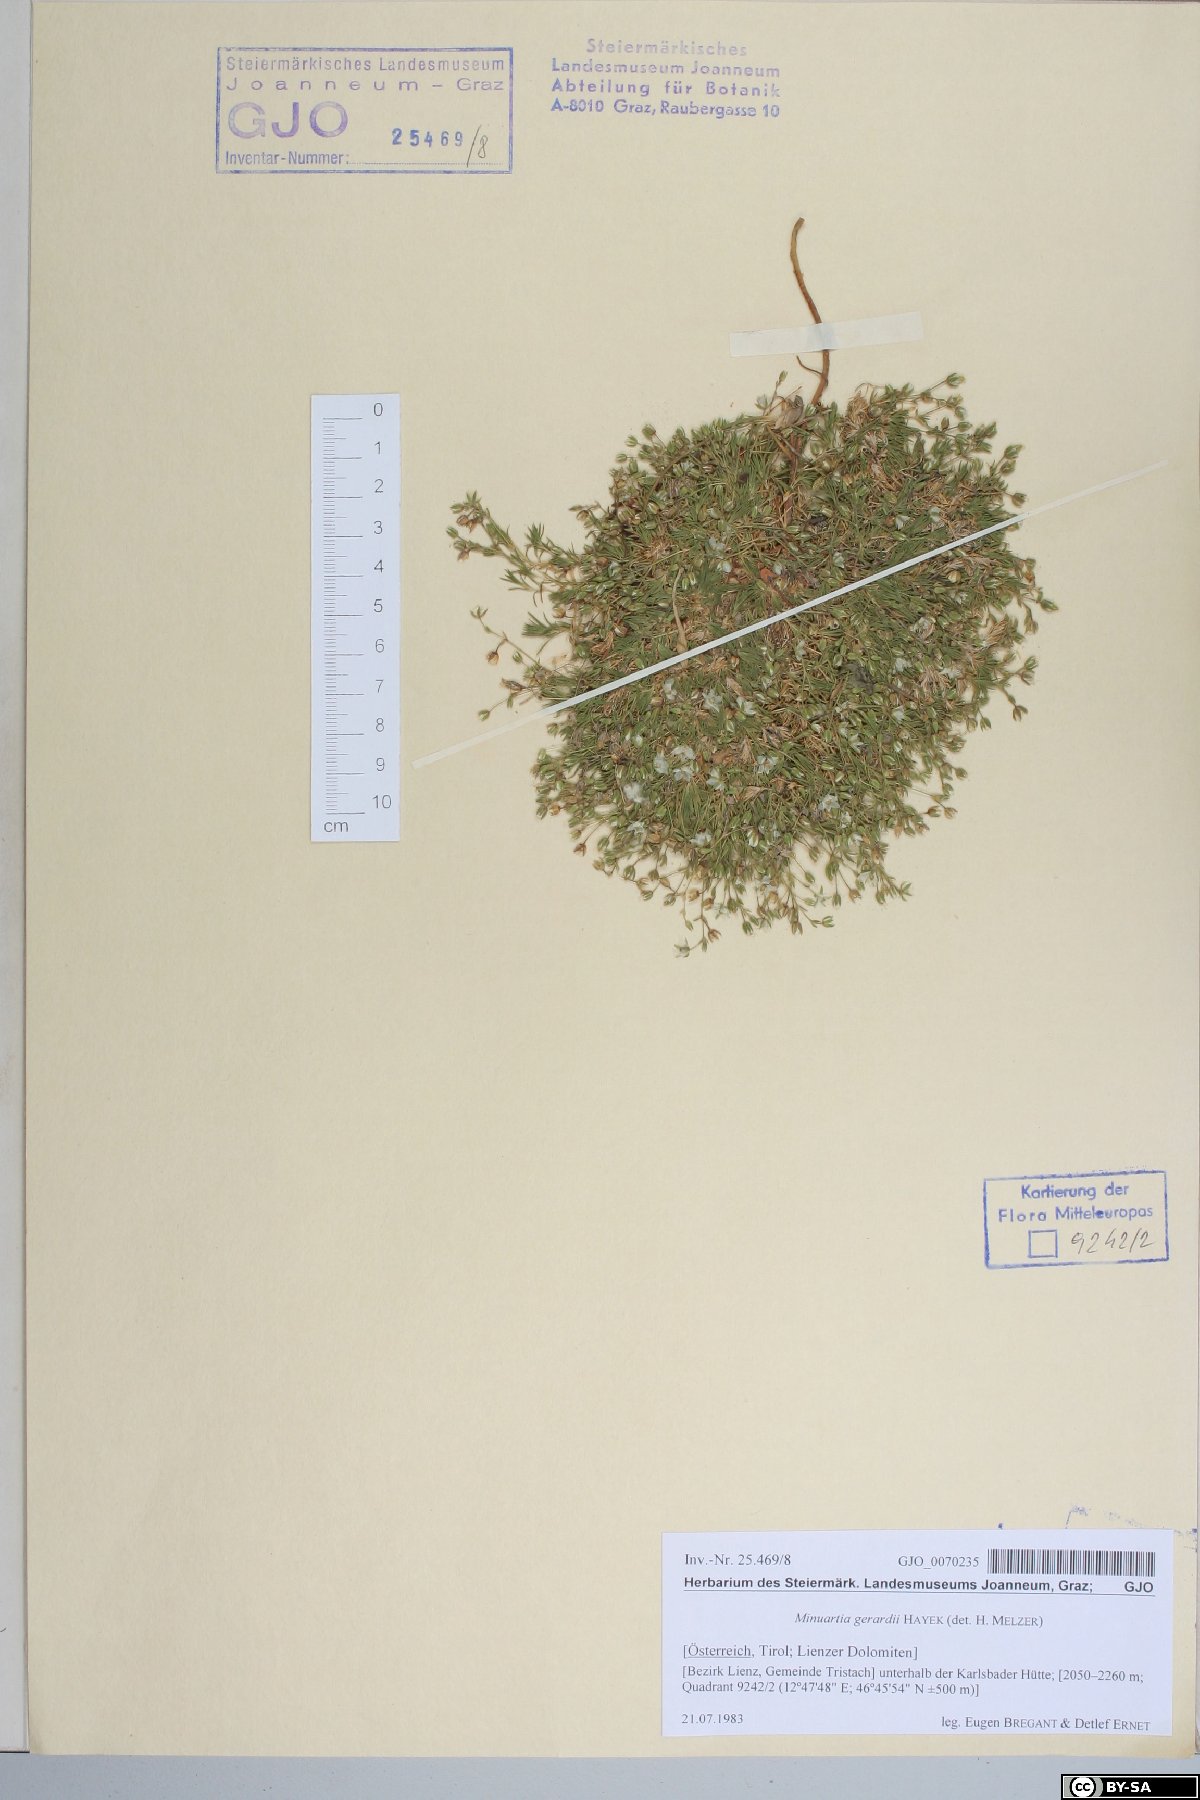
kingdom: Plantae
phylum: Tracheophyta
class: Magnoliopsida
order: Caryophyllales
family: Caryophyllaceae
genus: Sabulina
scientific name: Sabulina verna
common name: Spring sandwort
